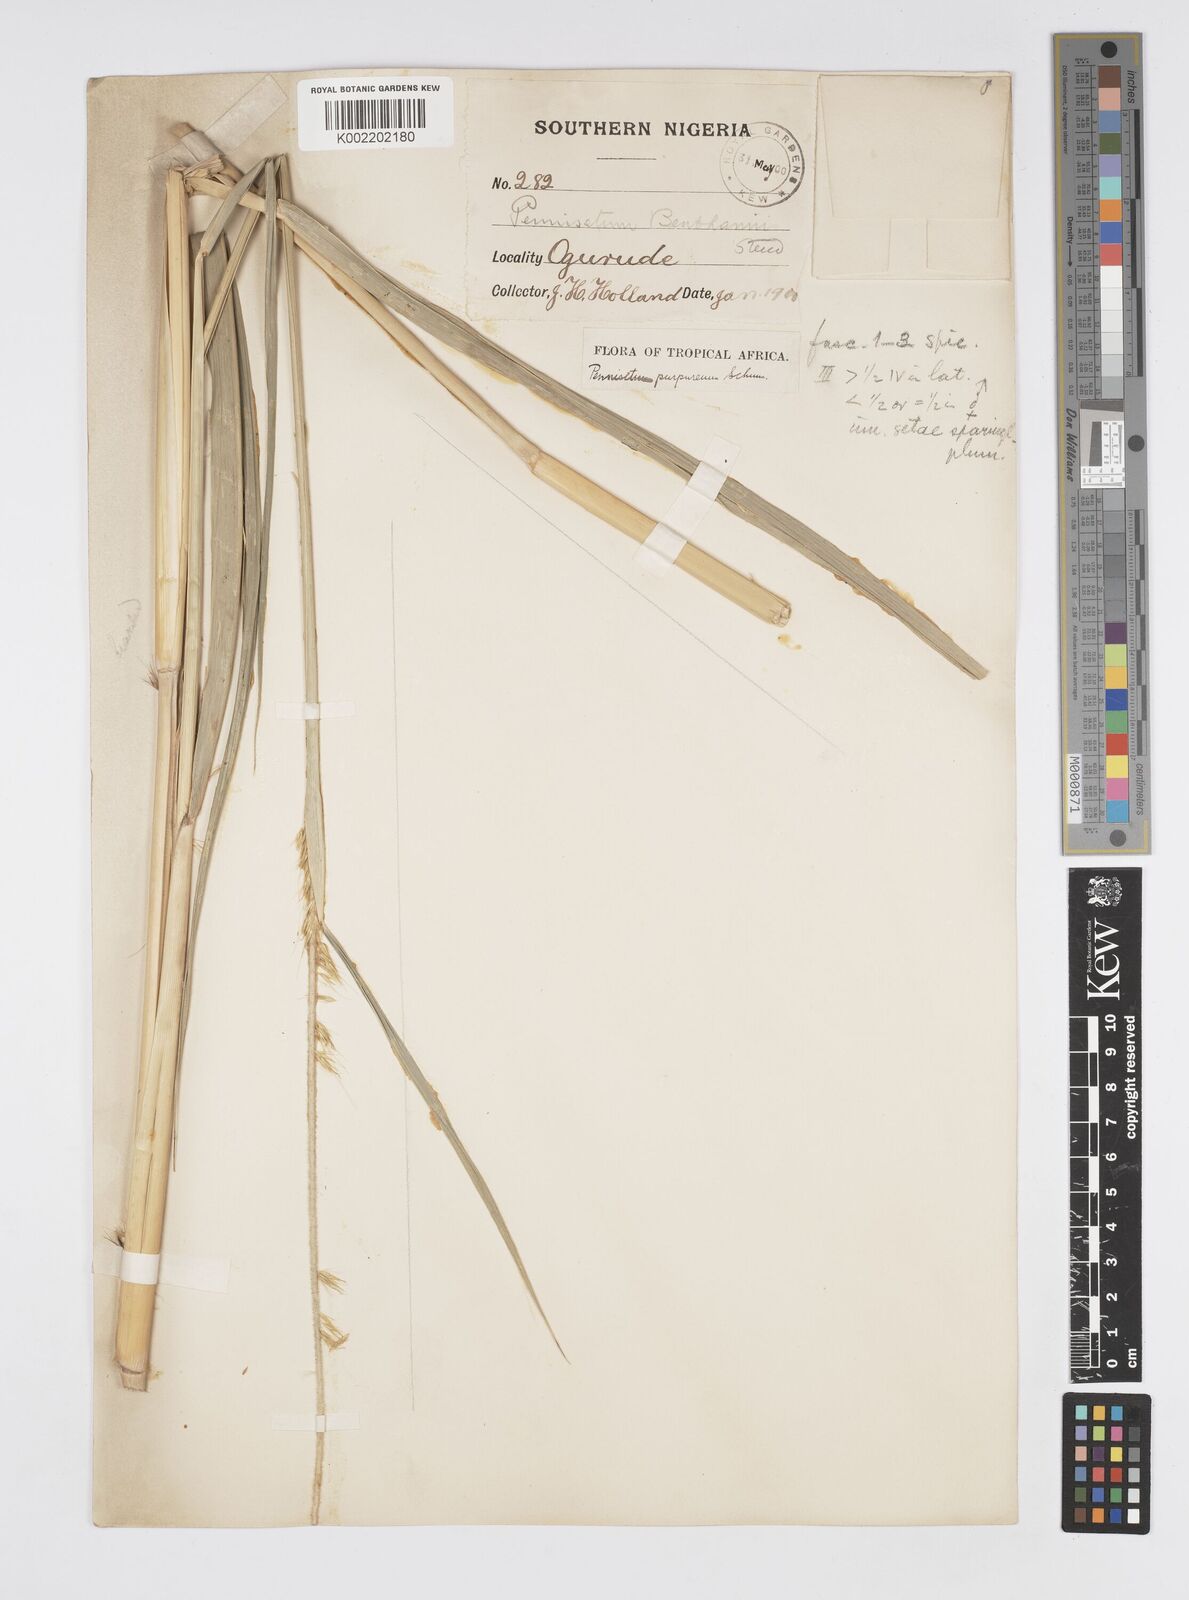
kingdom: Plantae
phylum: Tracheophyta
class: Liliopsida
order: Poales
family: Poaceae
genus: Cenchrus
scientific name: Cenchrus purpureus
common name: Elephant grass
